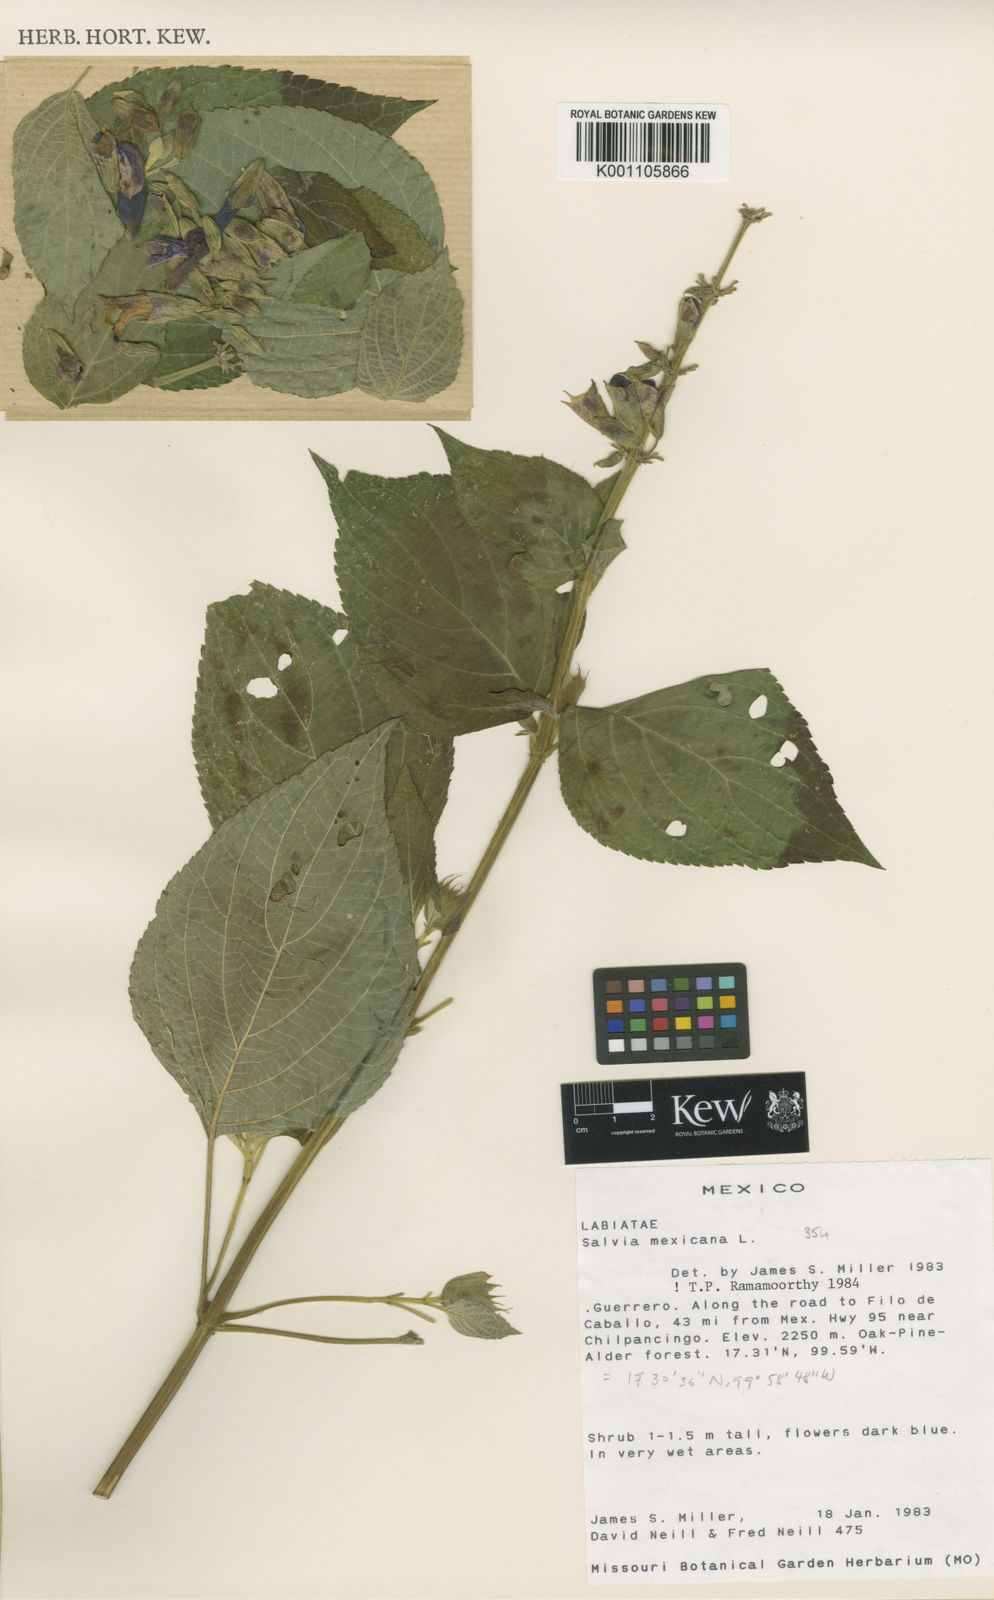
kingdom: Plantae
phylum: Tracheophyta
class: Magnoliopsida
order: Lamiales
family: Lamiaceae
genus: Salvia
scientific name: Salvia discolor
